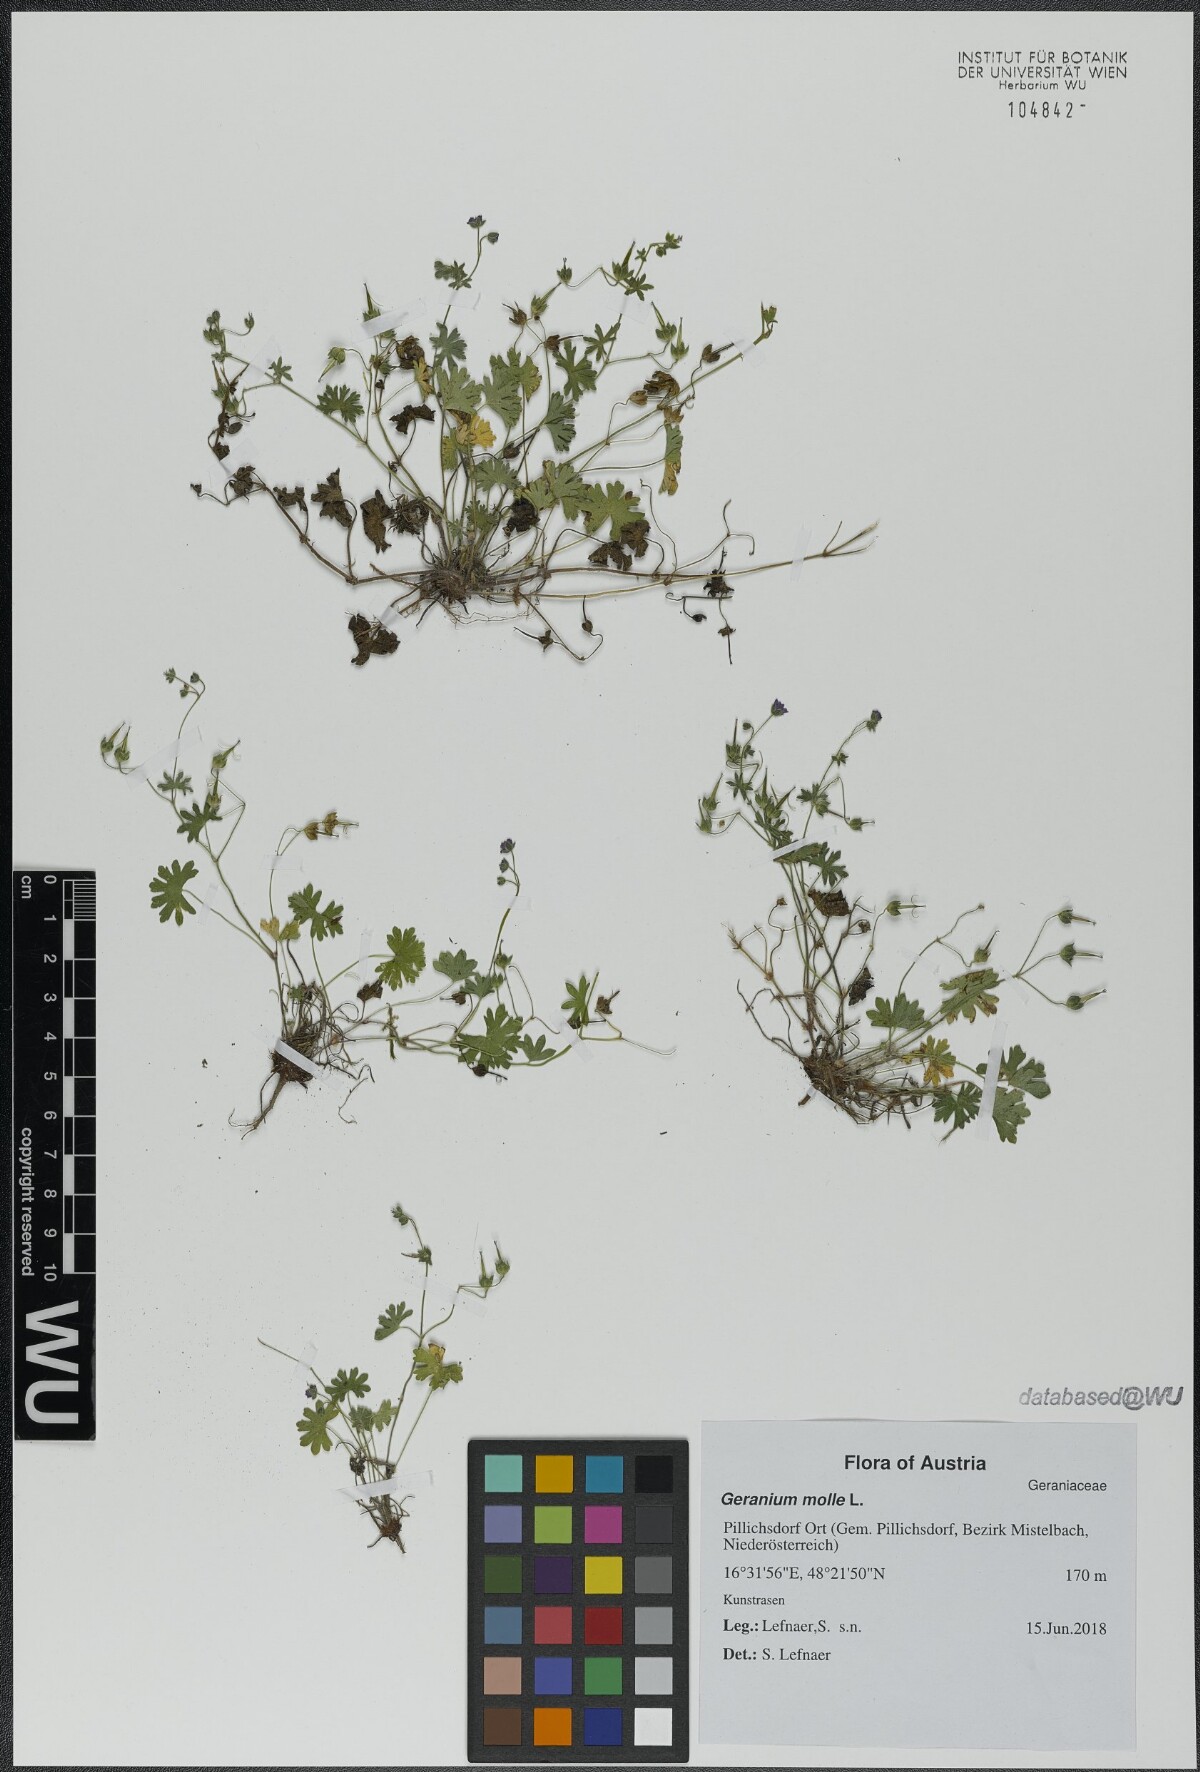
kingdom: Plantae
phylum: Tracheophyta
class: Magnoliopsida
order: Geraniales
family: Geraniaceae
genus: Geranium
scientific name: Geranium molle
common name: Dove's-foot crane's-bill
